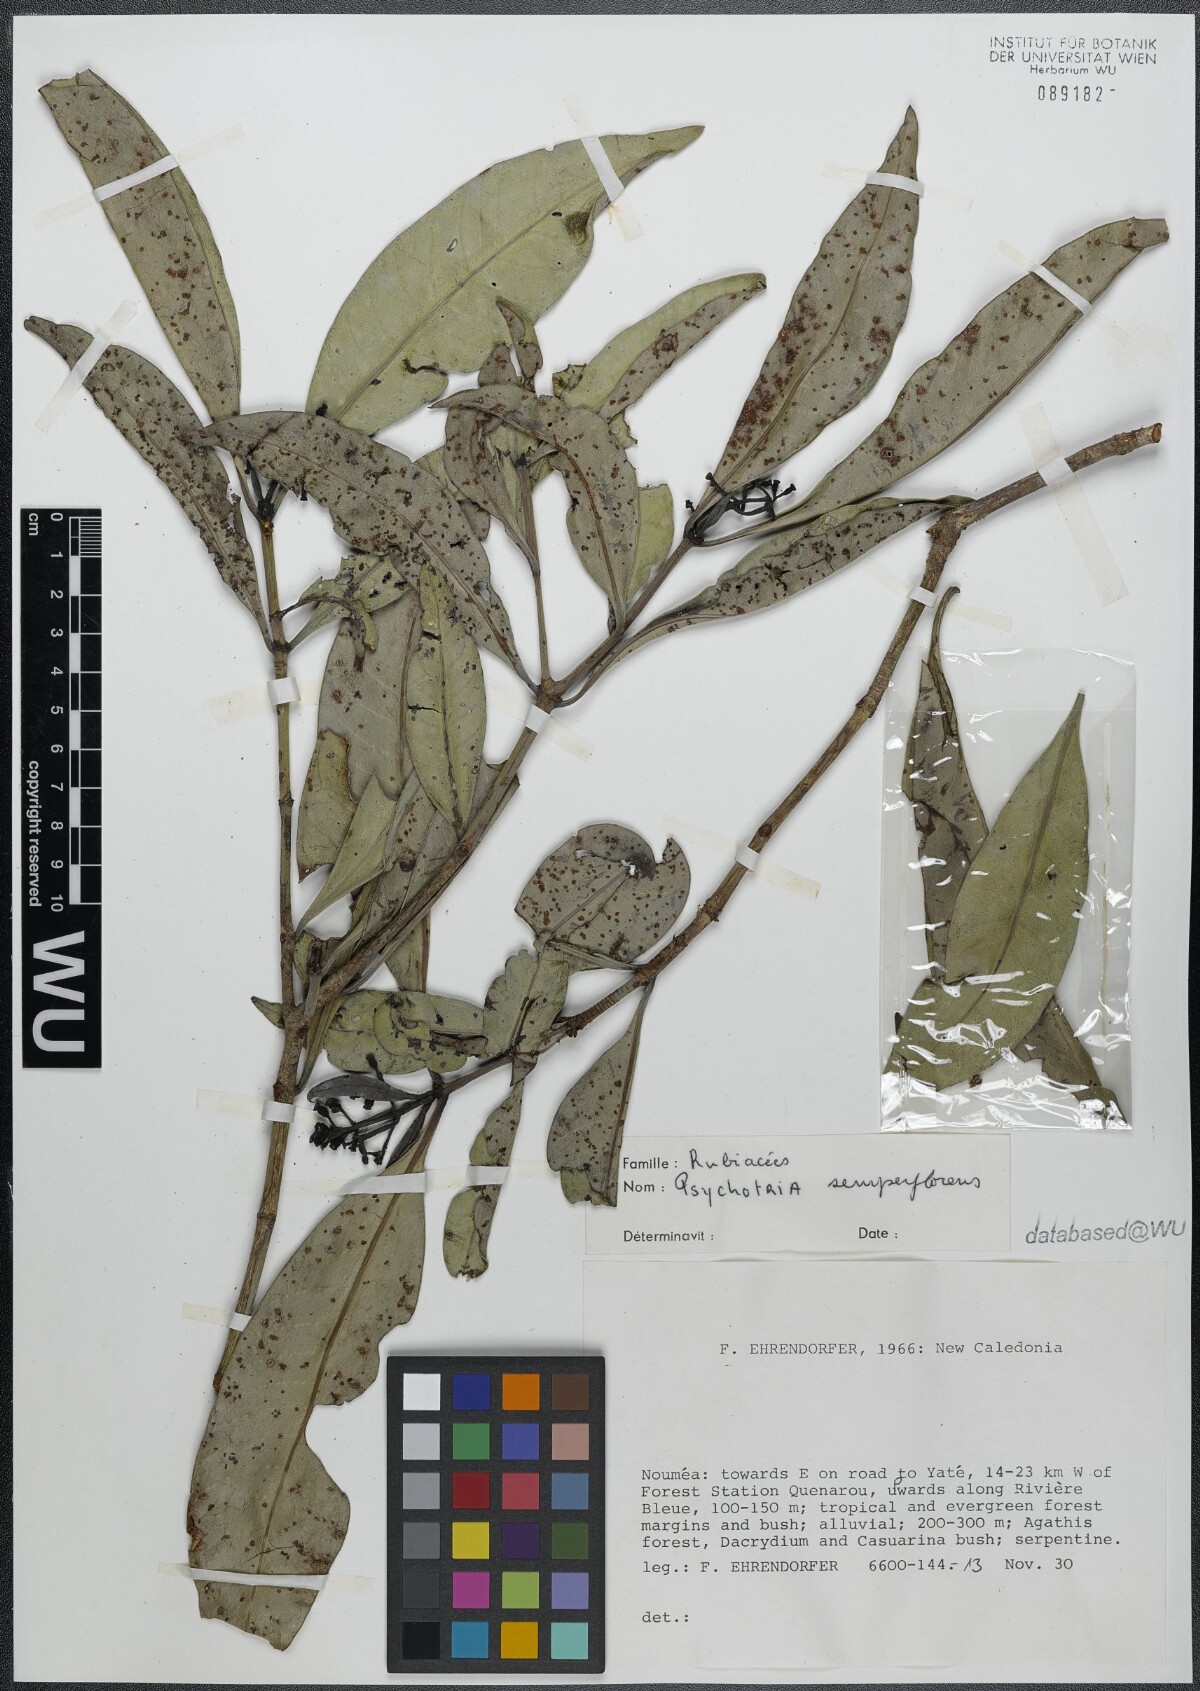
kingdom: Plantae
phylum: Tracheophyta
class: Magnoliopsida
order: Gentianales
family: Rubiaceae
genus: Psychotria
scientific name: Psychotria semperflorens
